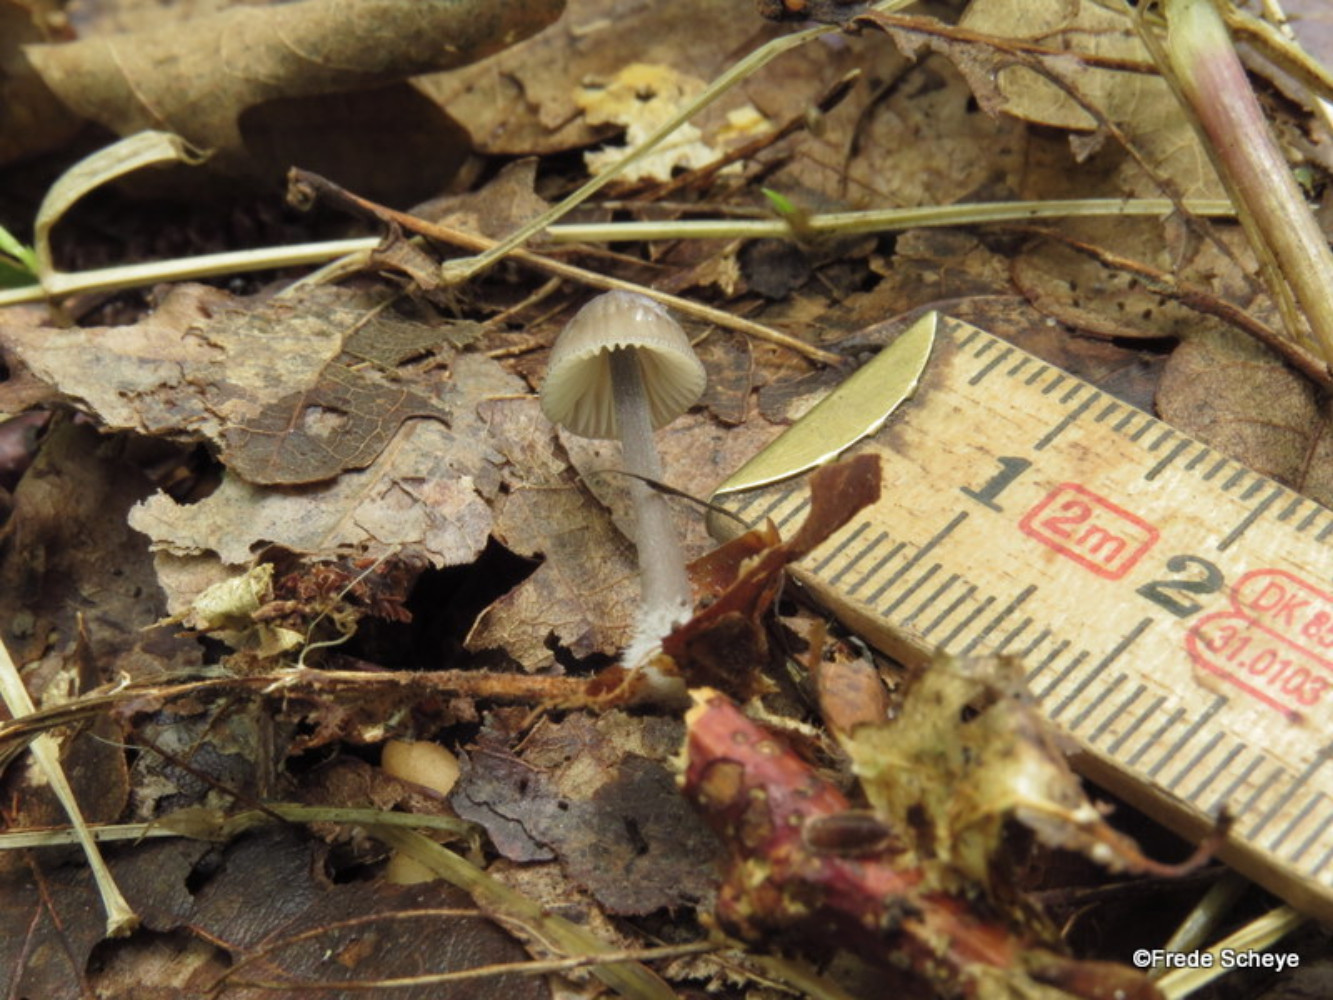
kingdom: Fungi
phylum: Basidiomycota
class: Agaricomycetes
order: Agaricales
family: Mycenaceae
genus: Mycena
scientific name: Mycena galopus
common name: hvidmælket huesvamp
